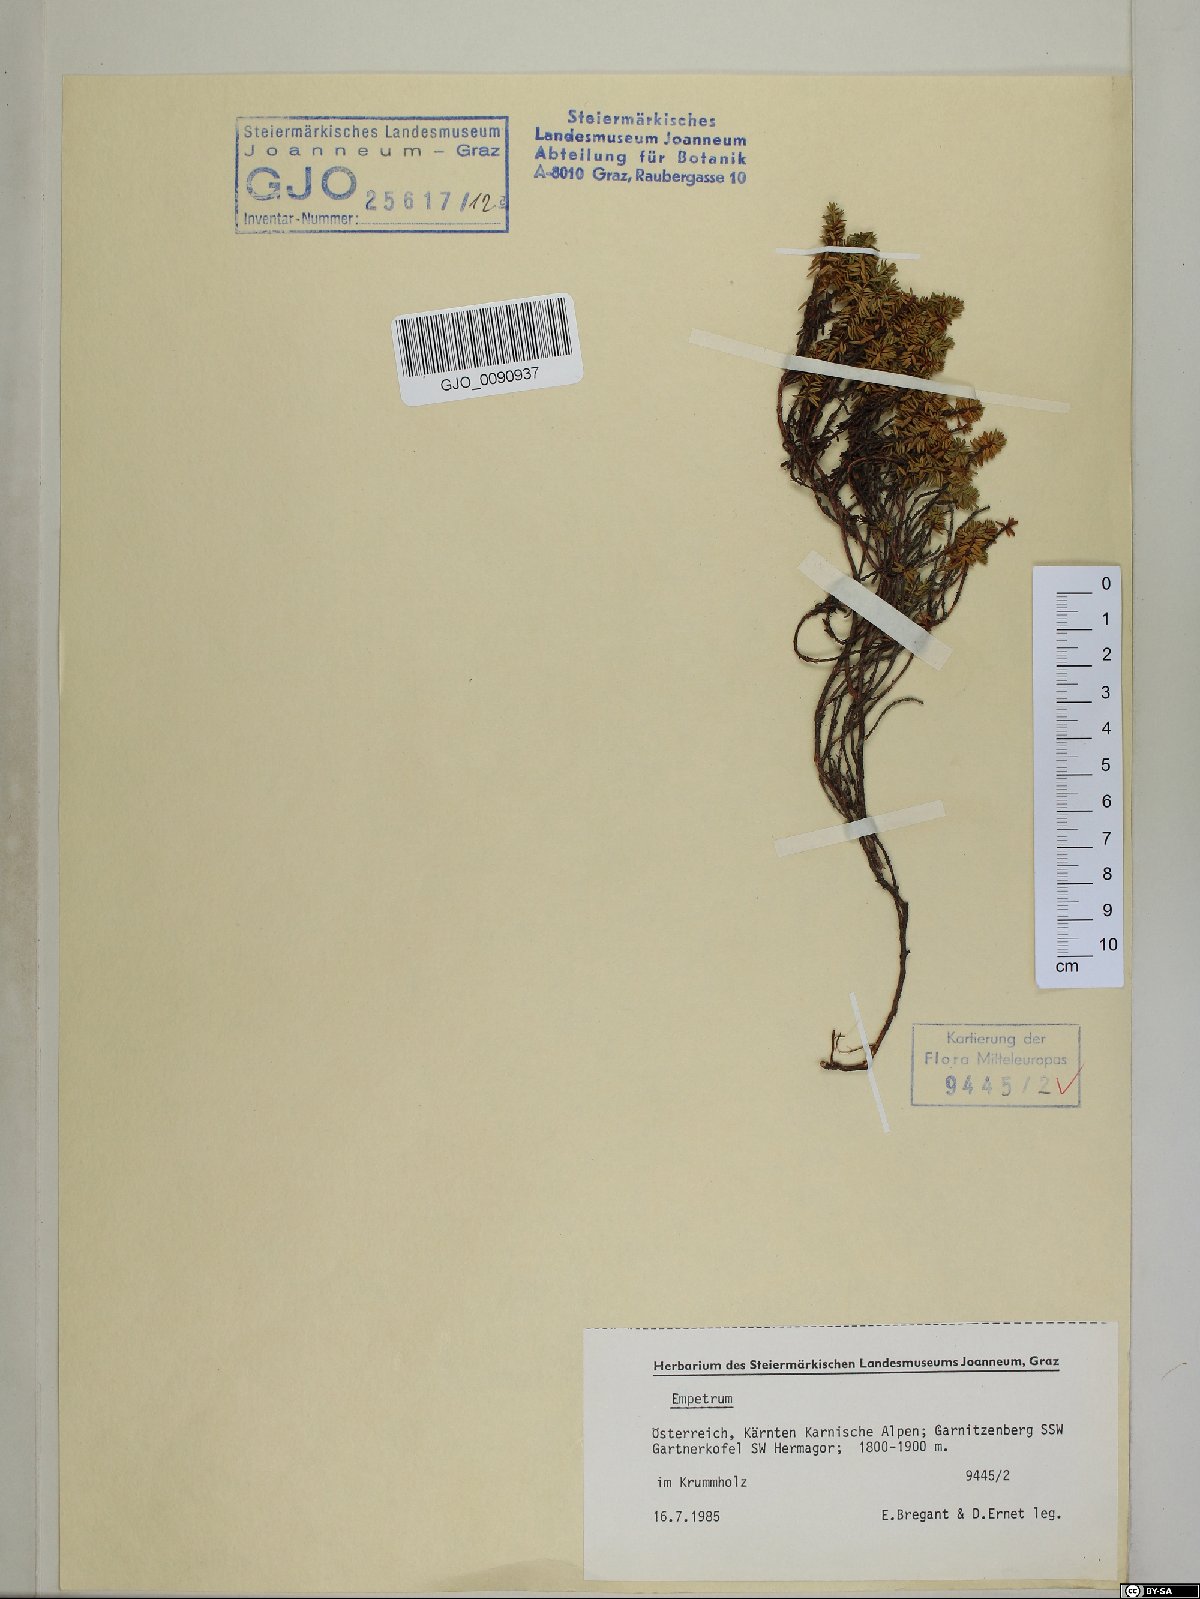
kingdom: Plantae
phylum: Tracheophyta
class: Magnoliopsida
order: Ericales
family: Ericaceae
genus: Empetrum
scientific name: Empetrum hermaphroditum
